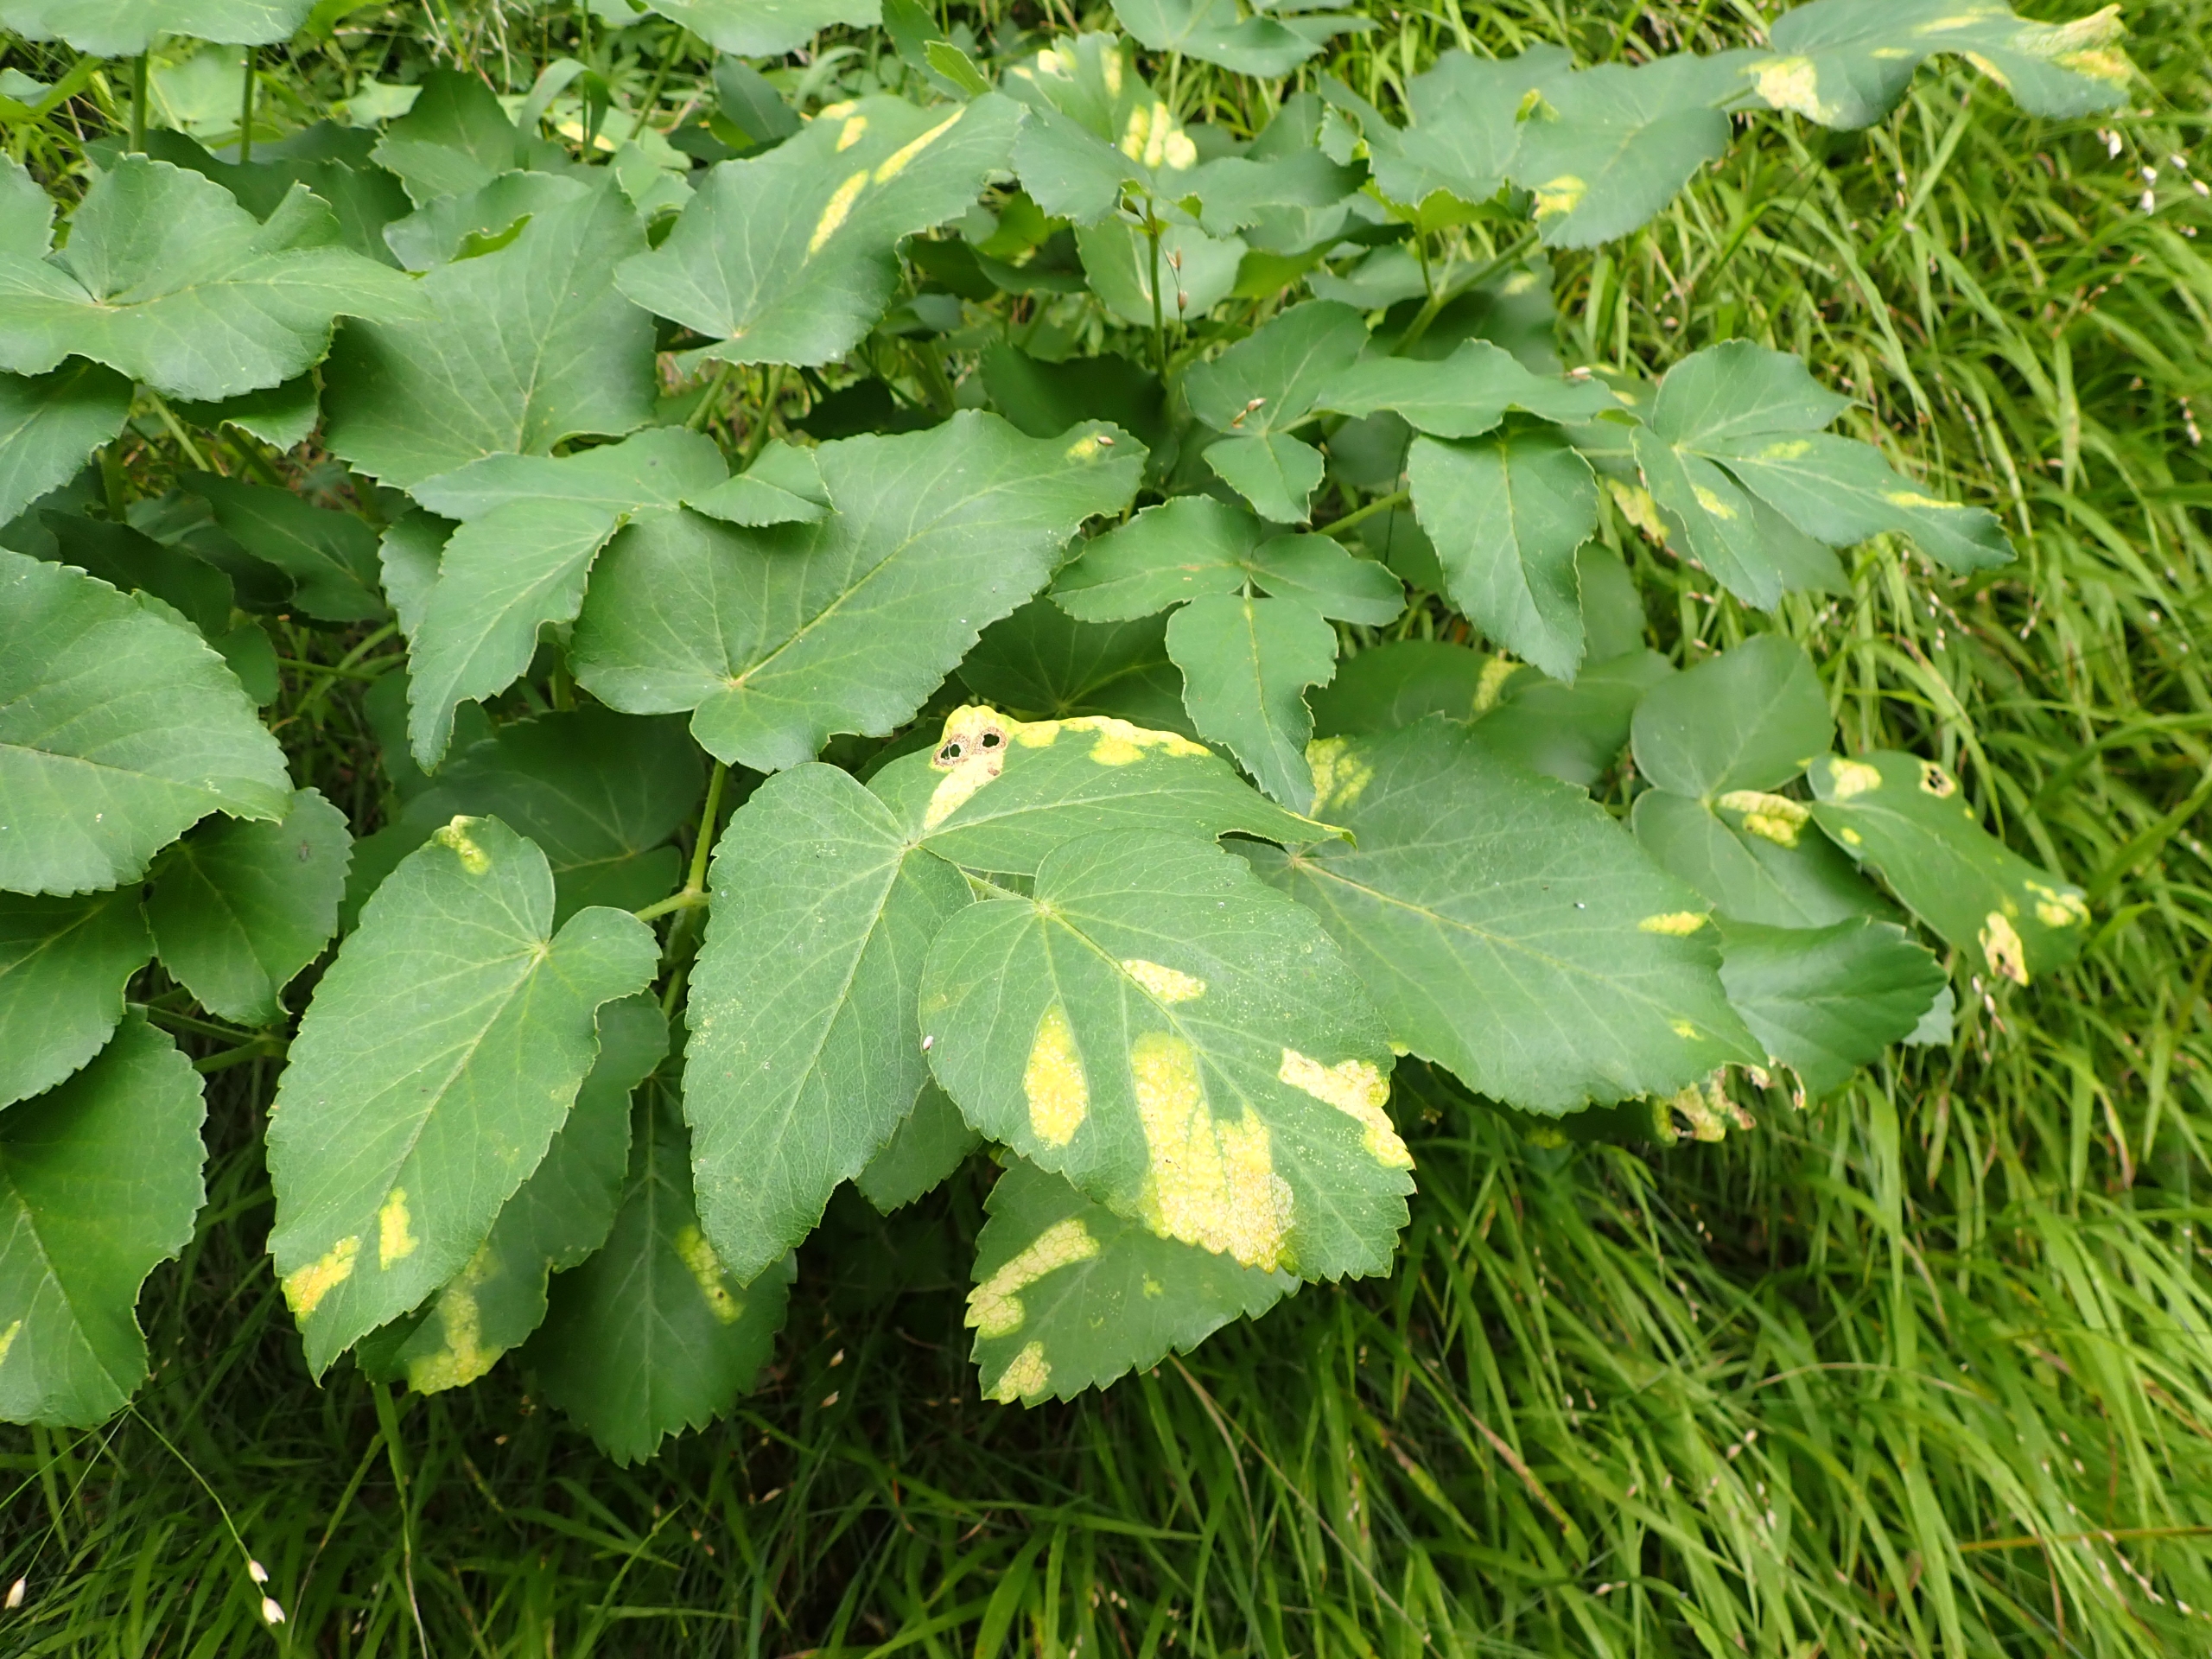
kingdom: Plantae
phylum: Tracheophyta
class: Magnoliopsida
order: Apiales
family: Apiaceae
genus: Laserpitium
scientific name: Laserpitium latifolium
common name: Foldfrø
